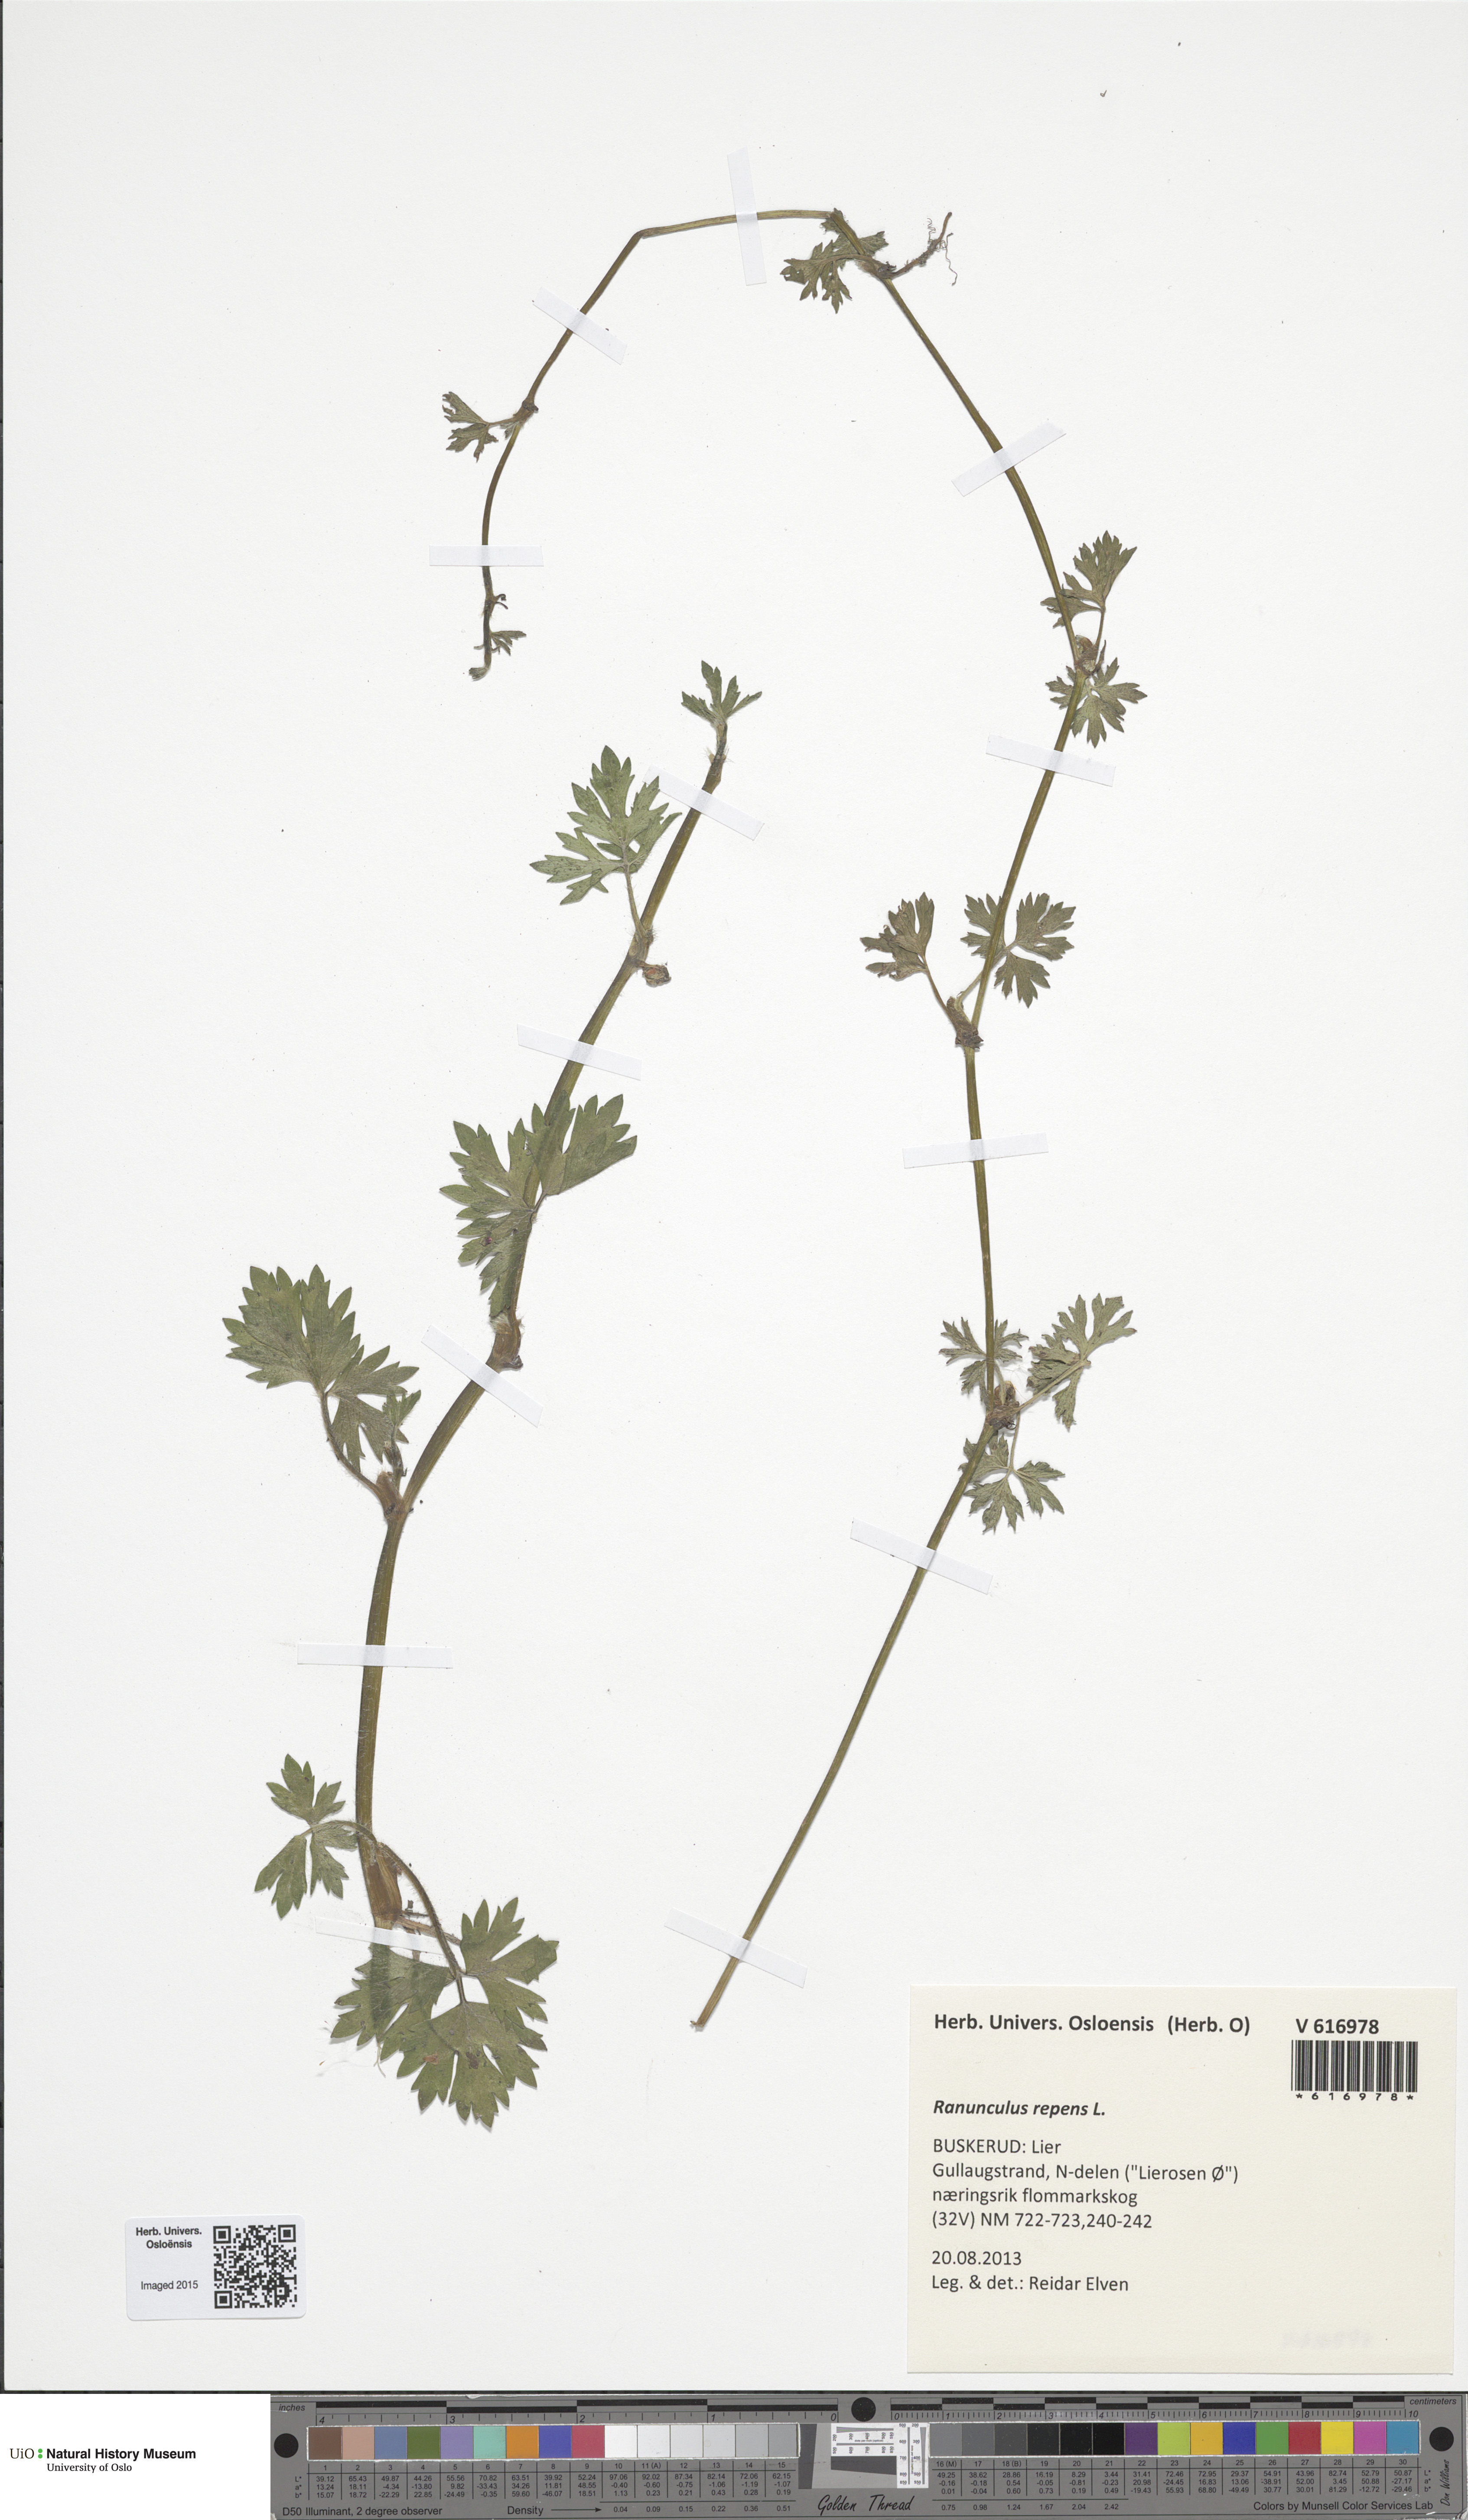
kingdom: Plantae
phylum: Tracheophyta
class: Magnoliopsida
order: Ranunculales
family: Ranunculaceae
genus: Ranunculus
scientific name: Ranunculus repens
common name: Creeping buttercup
